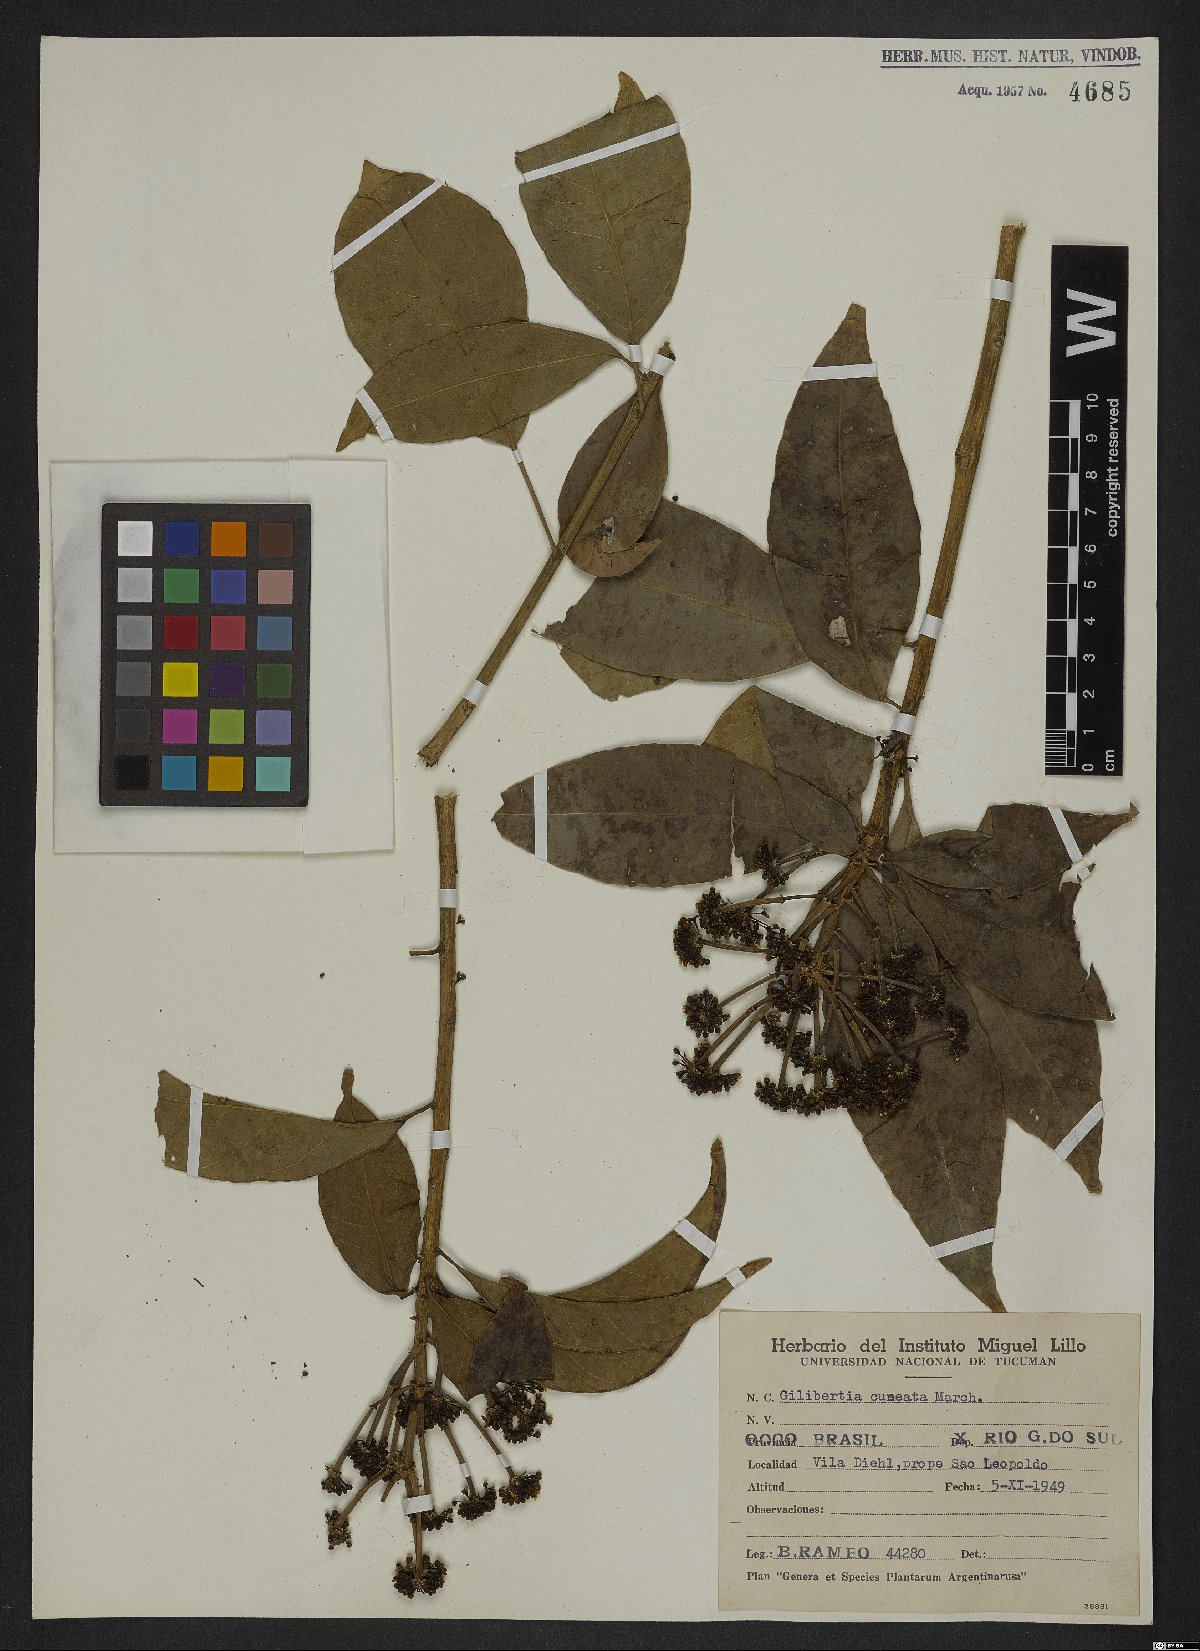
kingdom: Plantae
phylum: Tracheophyta
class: Magnoliopsida
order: Apiales
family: Araliaceae
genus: Dendropanax
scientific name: Dendropanax cuneatus
